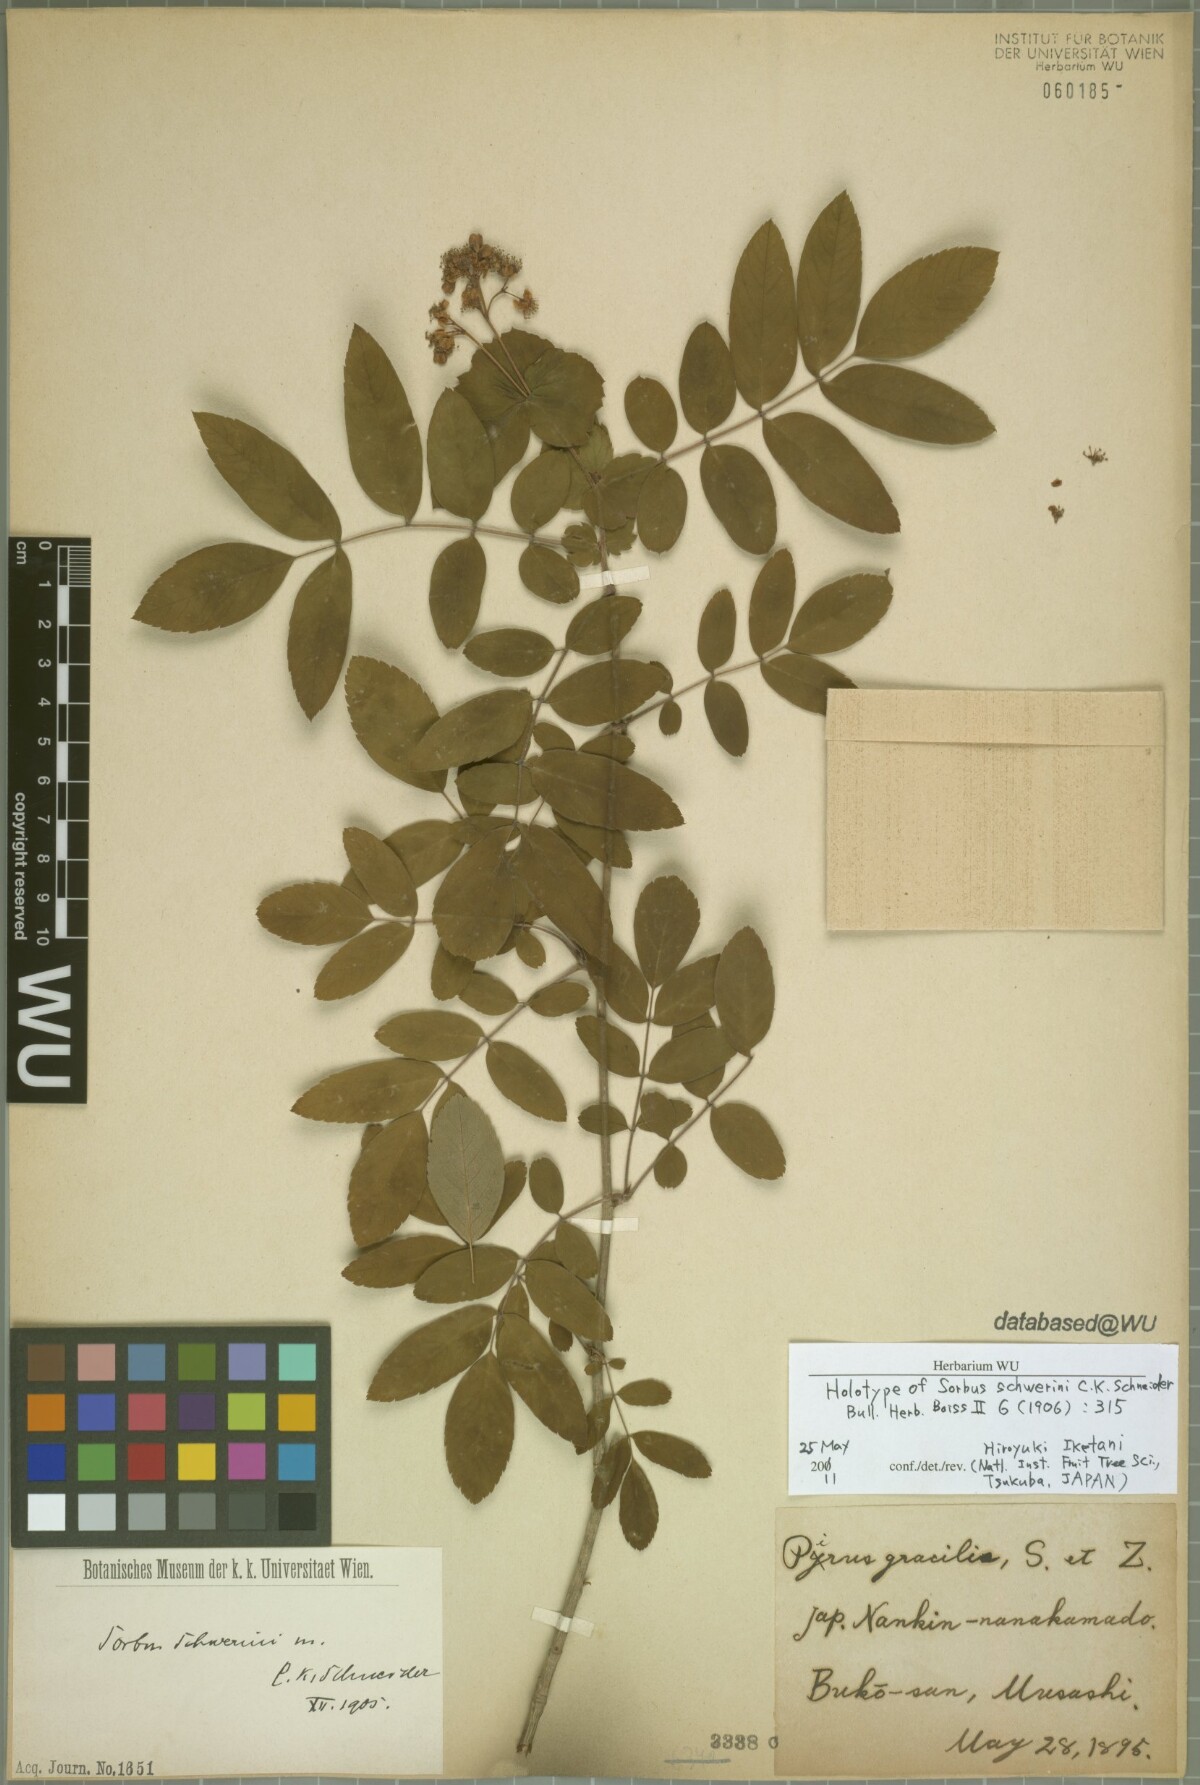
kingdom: Plantae
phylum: Tracheophyta
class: Magnoliopsida
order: Rosales
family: Rosaceae
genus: Sorbus
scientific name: Sorbus schwerinii
